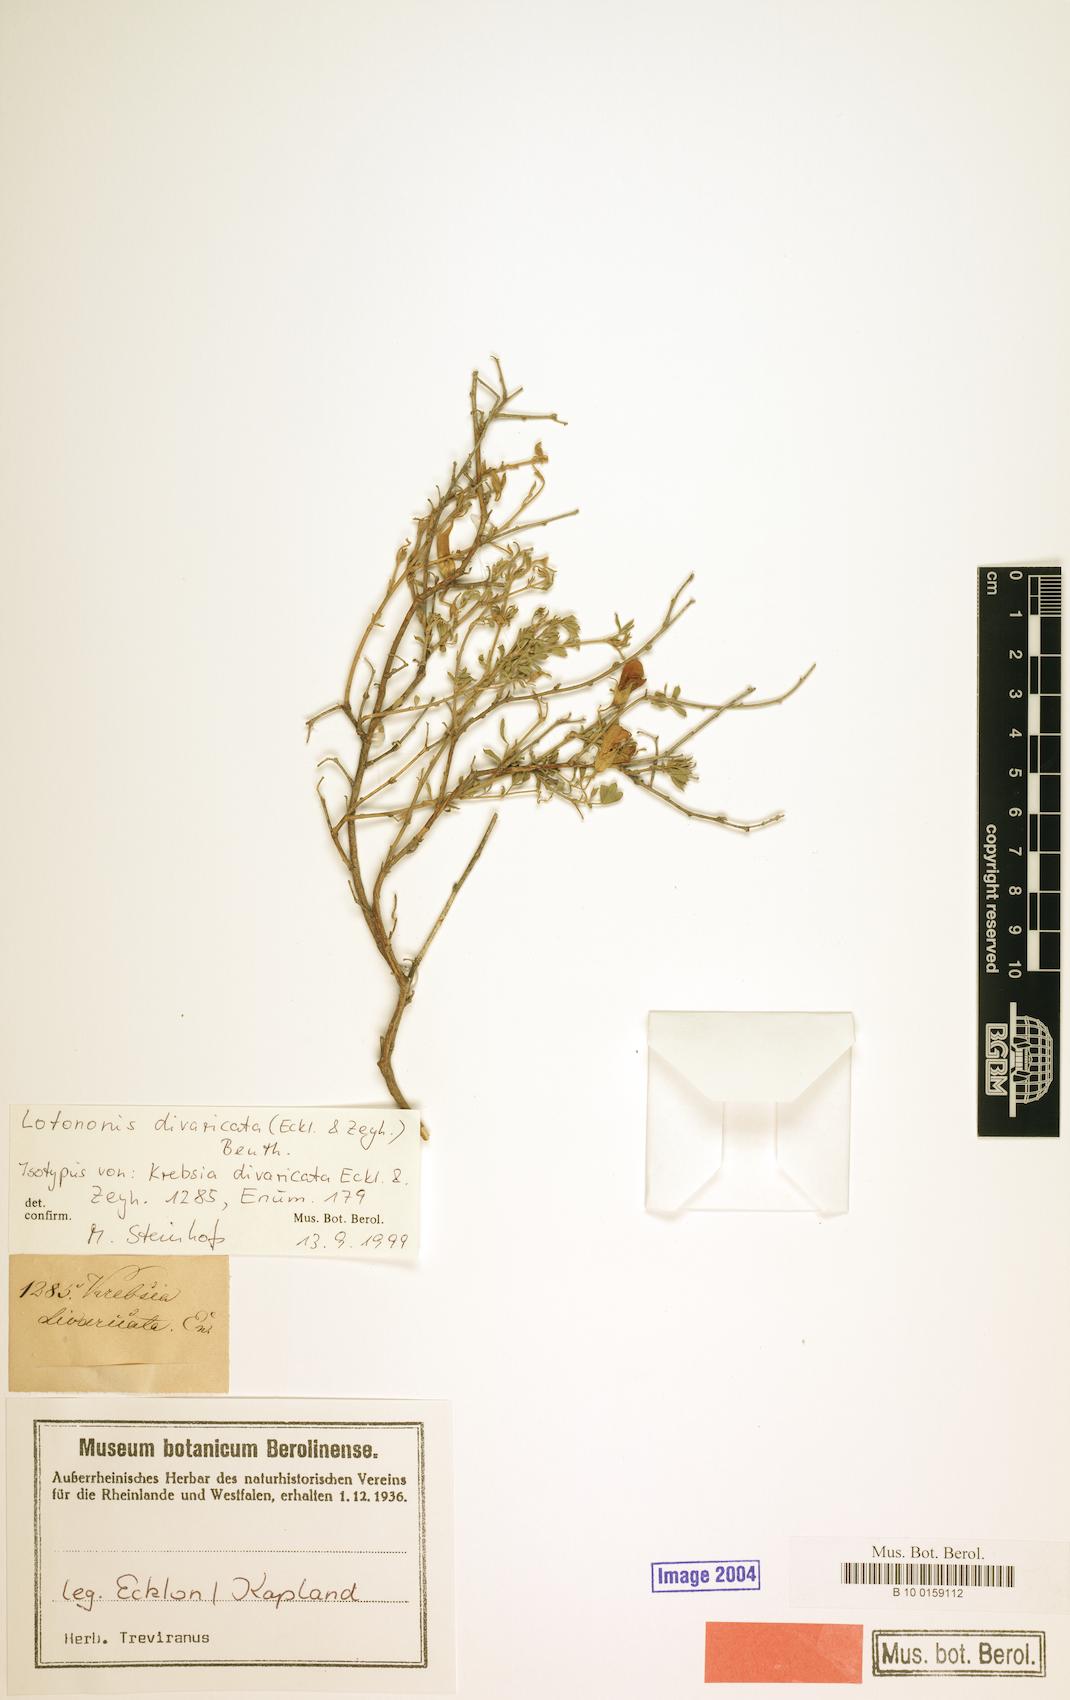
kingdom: Plantae
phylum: Tracheophyta
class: Magnoliopsida
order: Fabales
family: Fabaceae
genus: Lotononis
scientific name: Lotononis divaricata
